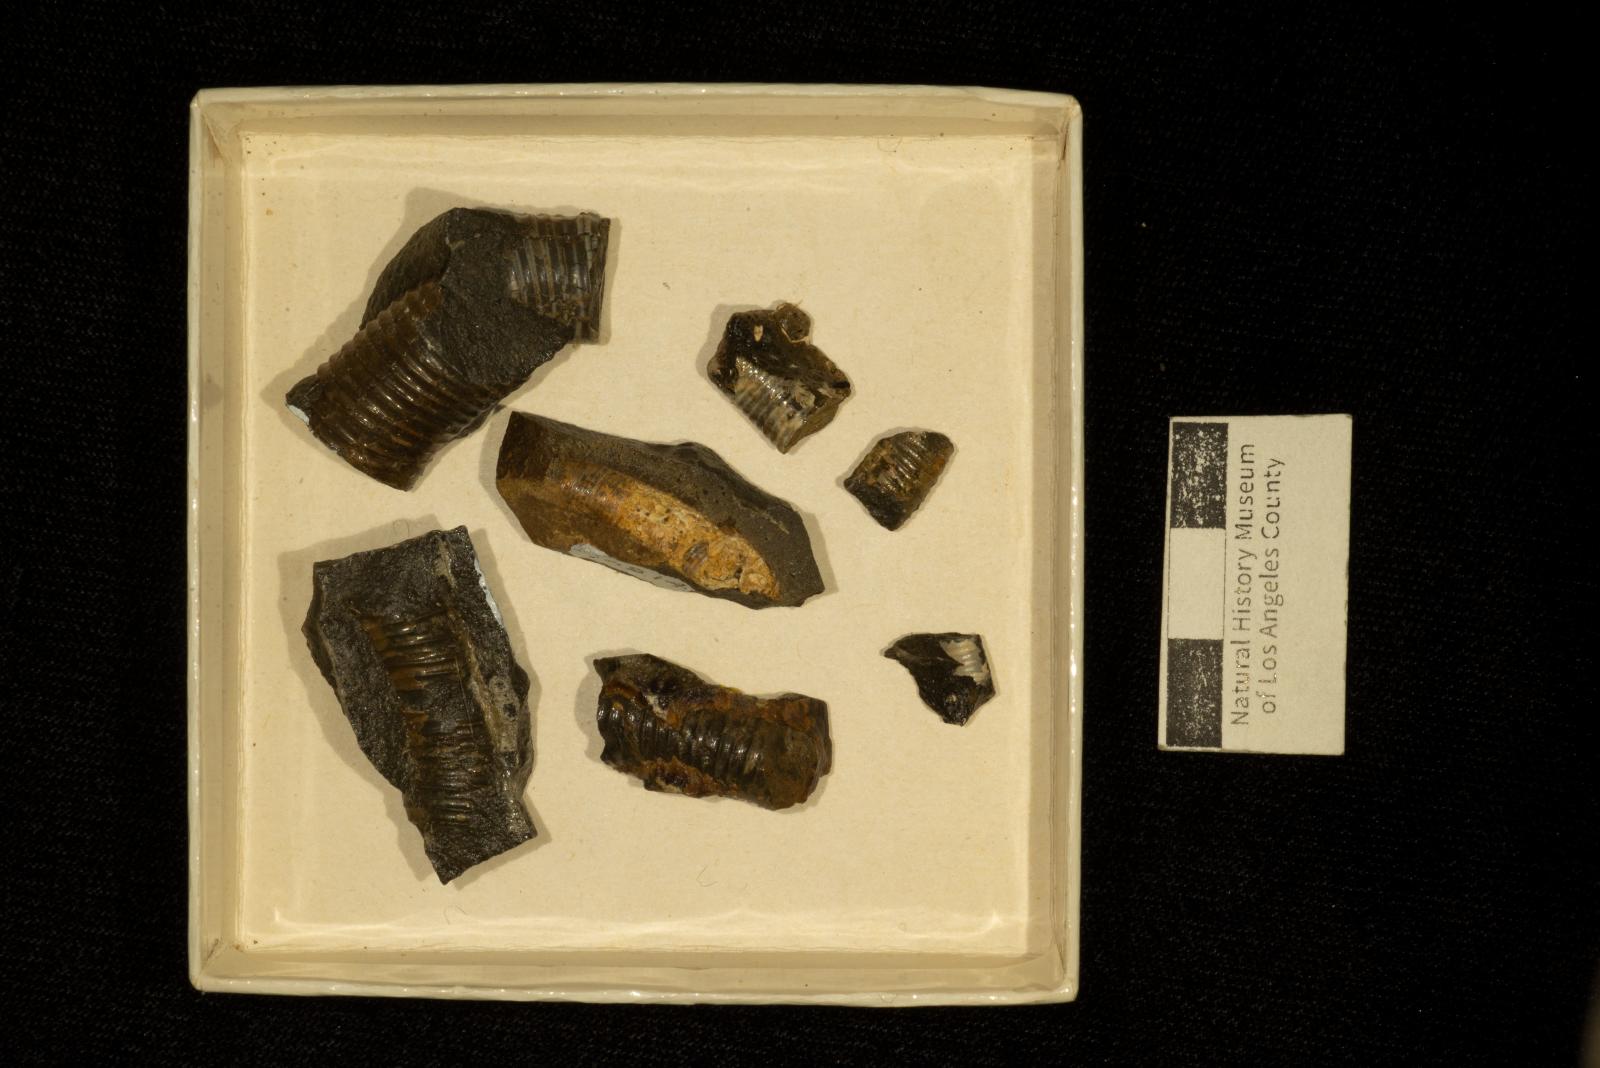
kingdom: Animalia
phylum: Mollusca
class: Cephalopoda
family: Diplomoceratidae
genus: Scalarites
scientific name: Scalarites mihoensis
